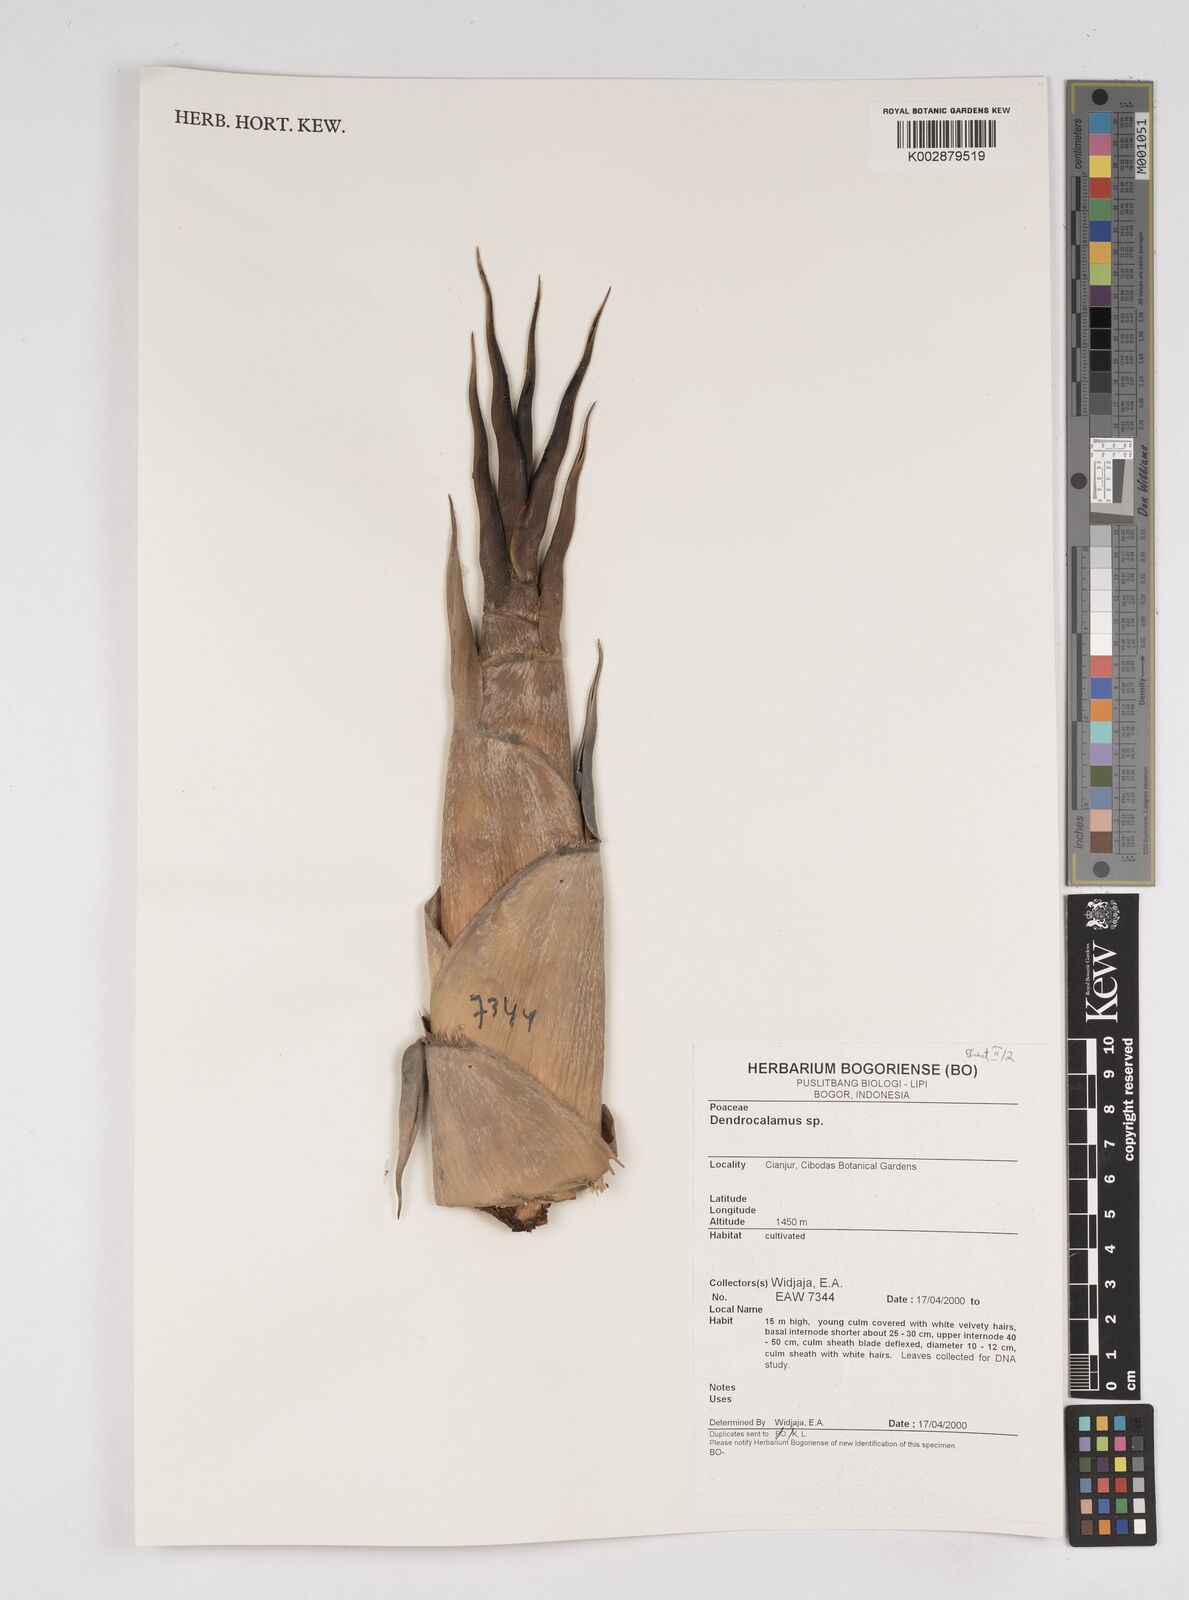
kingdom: Plantae
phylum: Tracheophyta
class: Liliopsida
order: Poales
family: Poaceae
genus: Dendrocalamus
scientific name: Dendrocalamus
